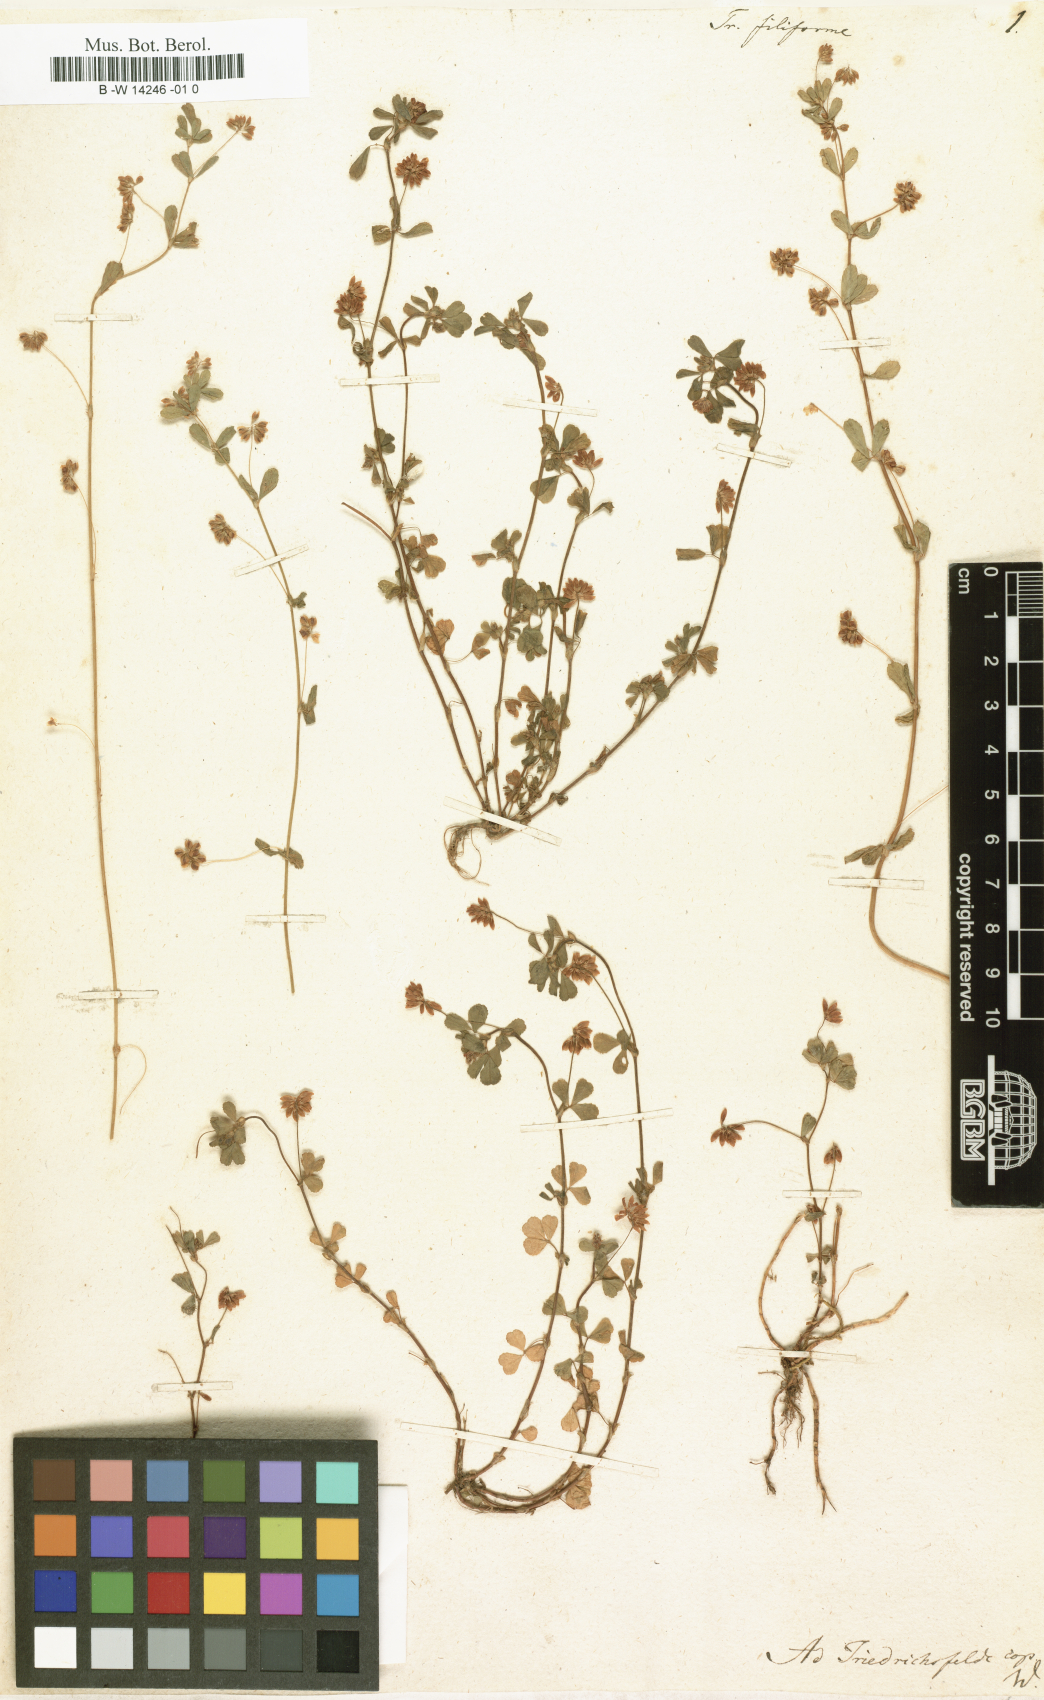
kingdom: Plantae
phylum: Tracheophyta
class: Magnoliopsida
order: Fabales
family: Fabaceae
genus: Trifolium
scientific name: Trifolium micranthum
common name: Slender trefoil
